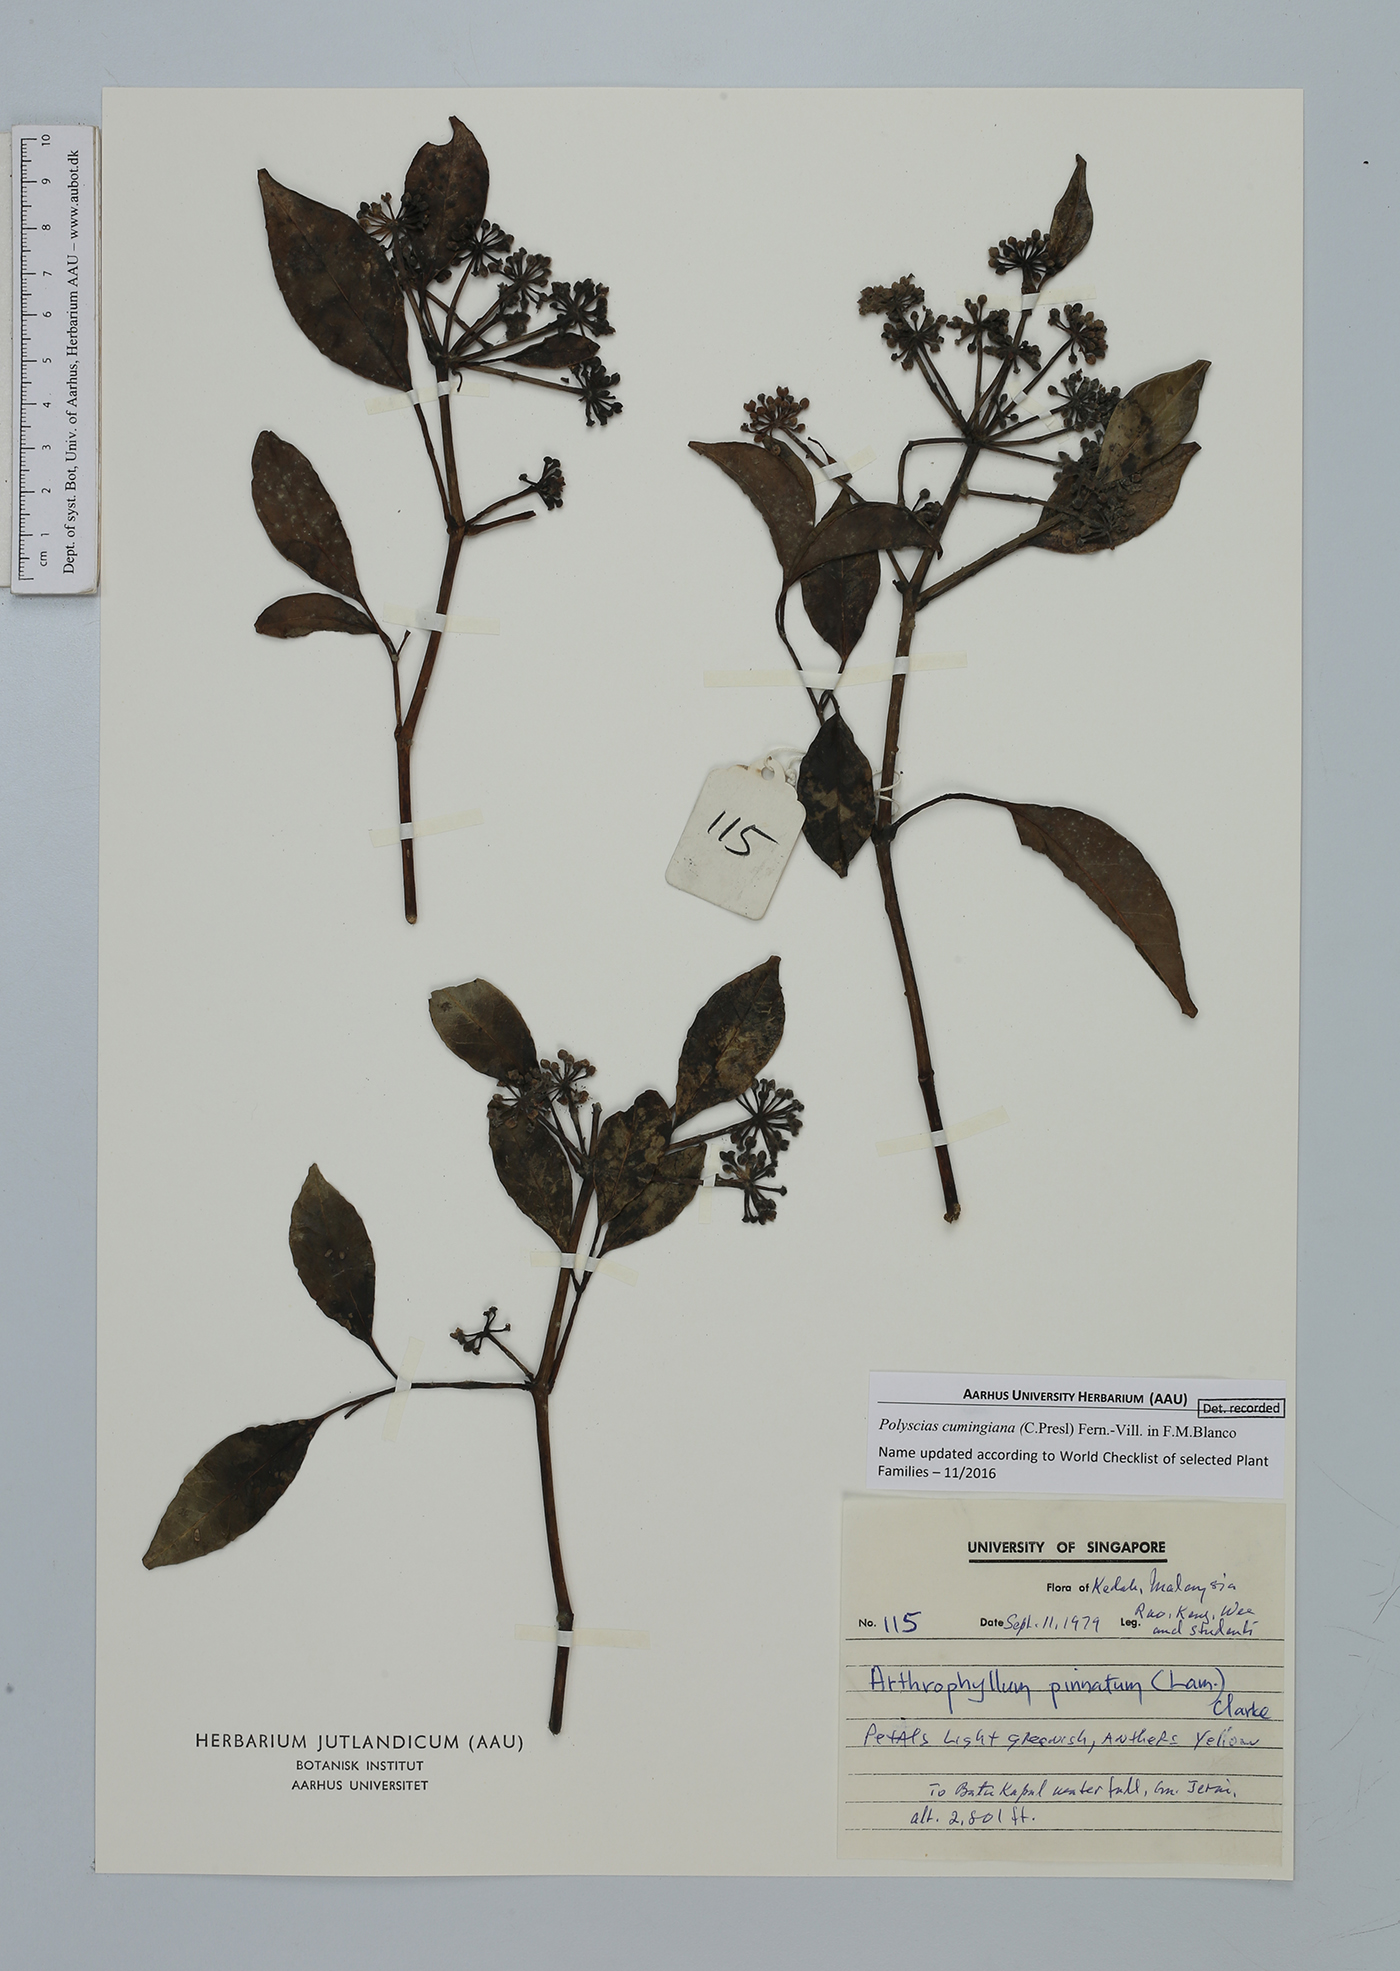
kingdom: Plantae
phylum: Tracheophyta
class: Magnoliopsida
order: Apiales
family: Araliaceae
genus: Polyscias
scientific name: Polyscias cumingiana
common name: Fern-leaf aralia
